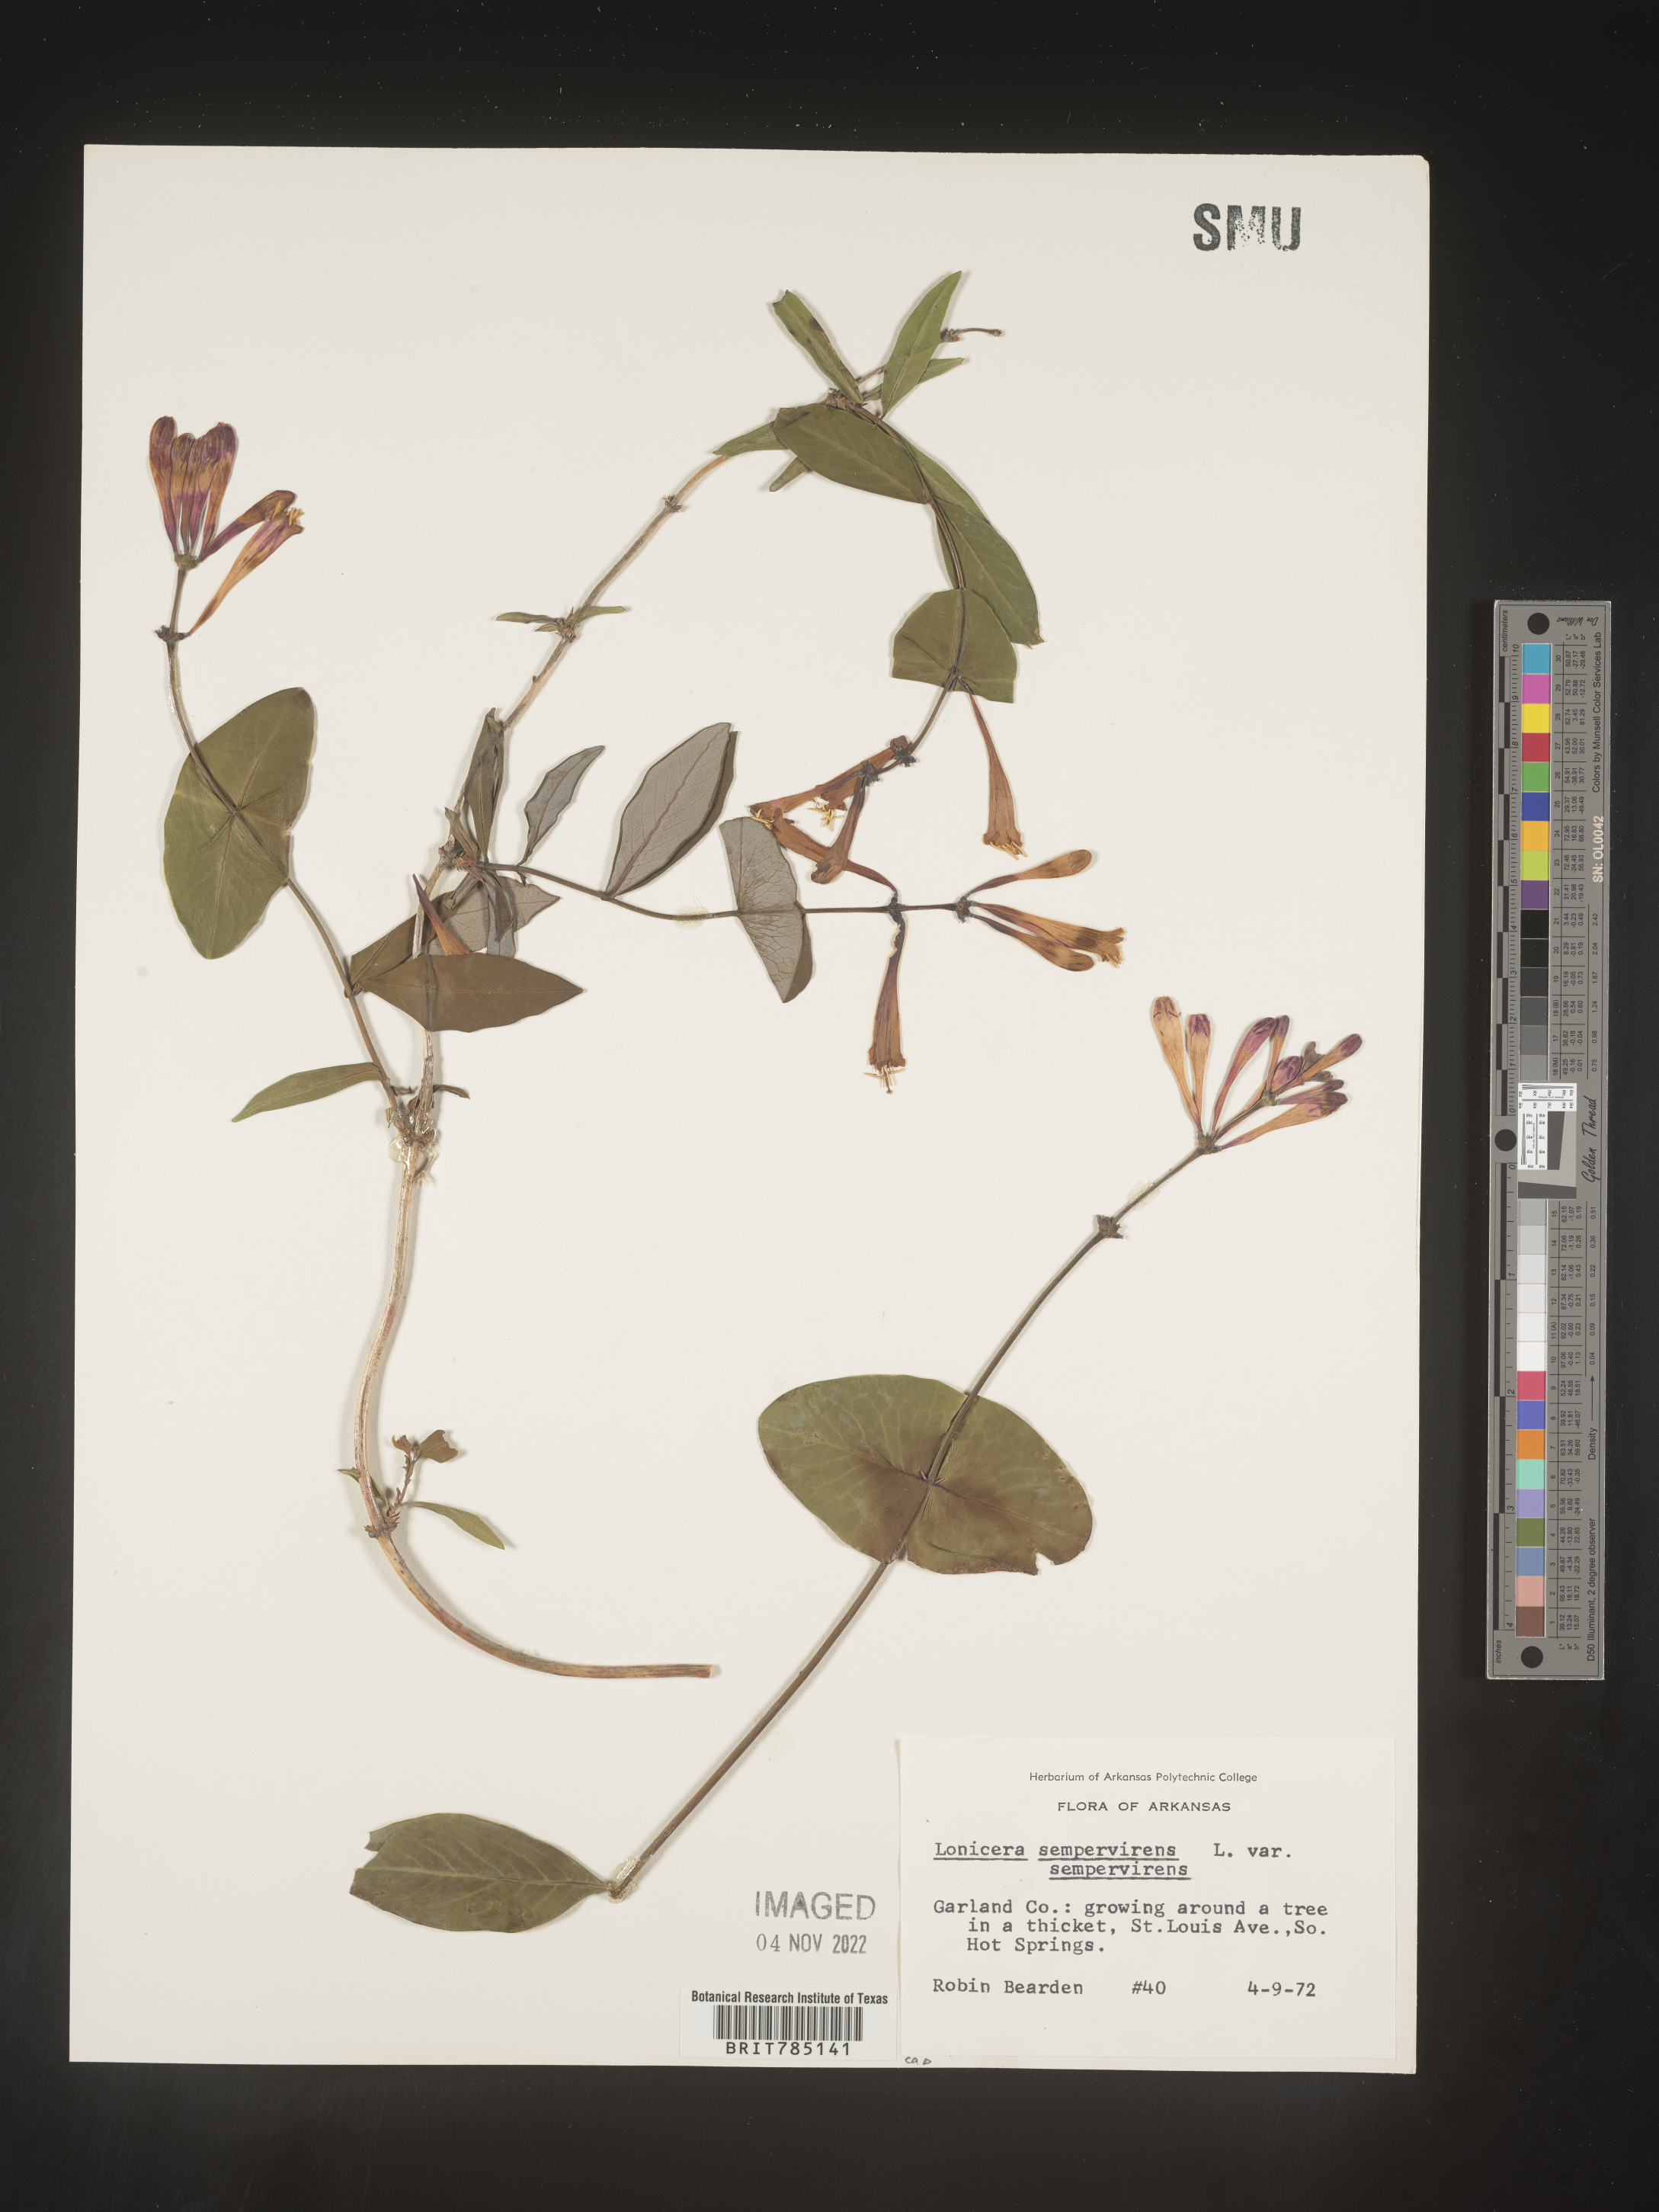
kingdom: Plantae
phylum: Tracheophyta
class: Magnoliopsida
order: Dipsacales
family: Caprifoliaceae
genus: Lonicera
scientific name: Lonicera sempervirens
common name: Coral honeysuckle
